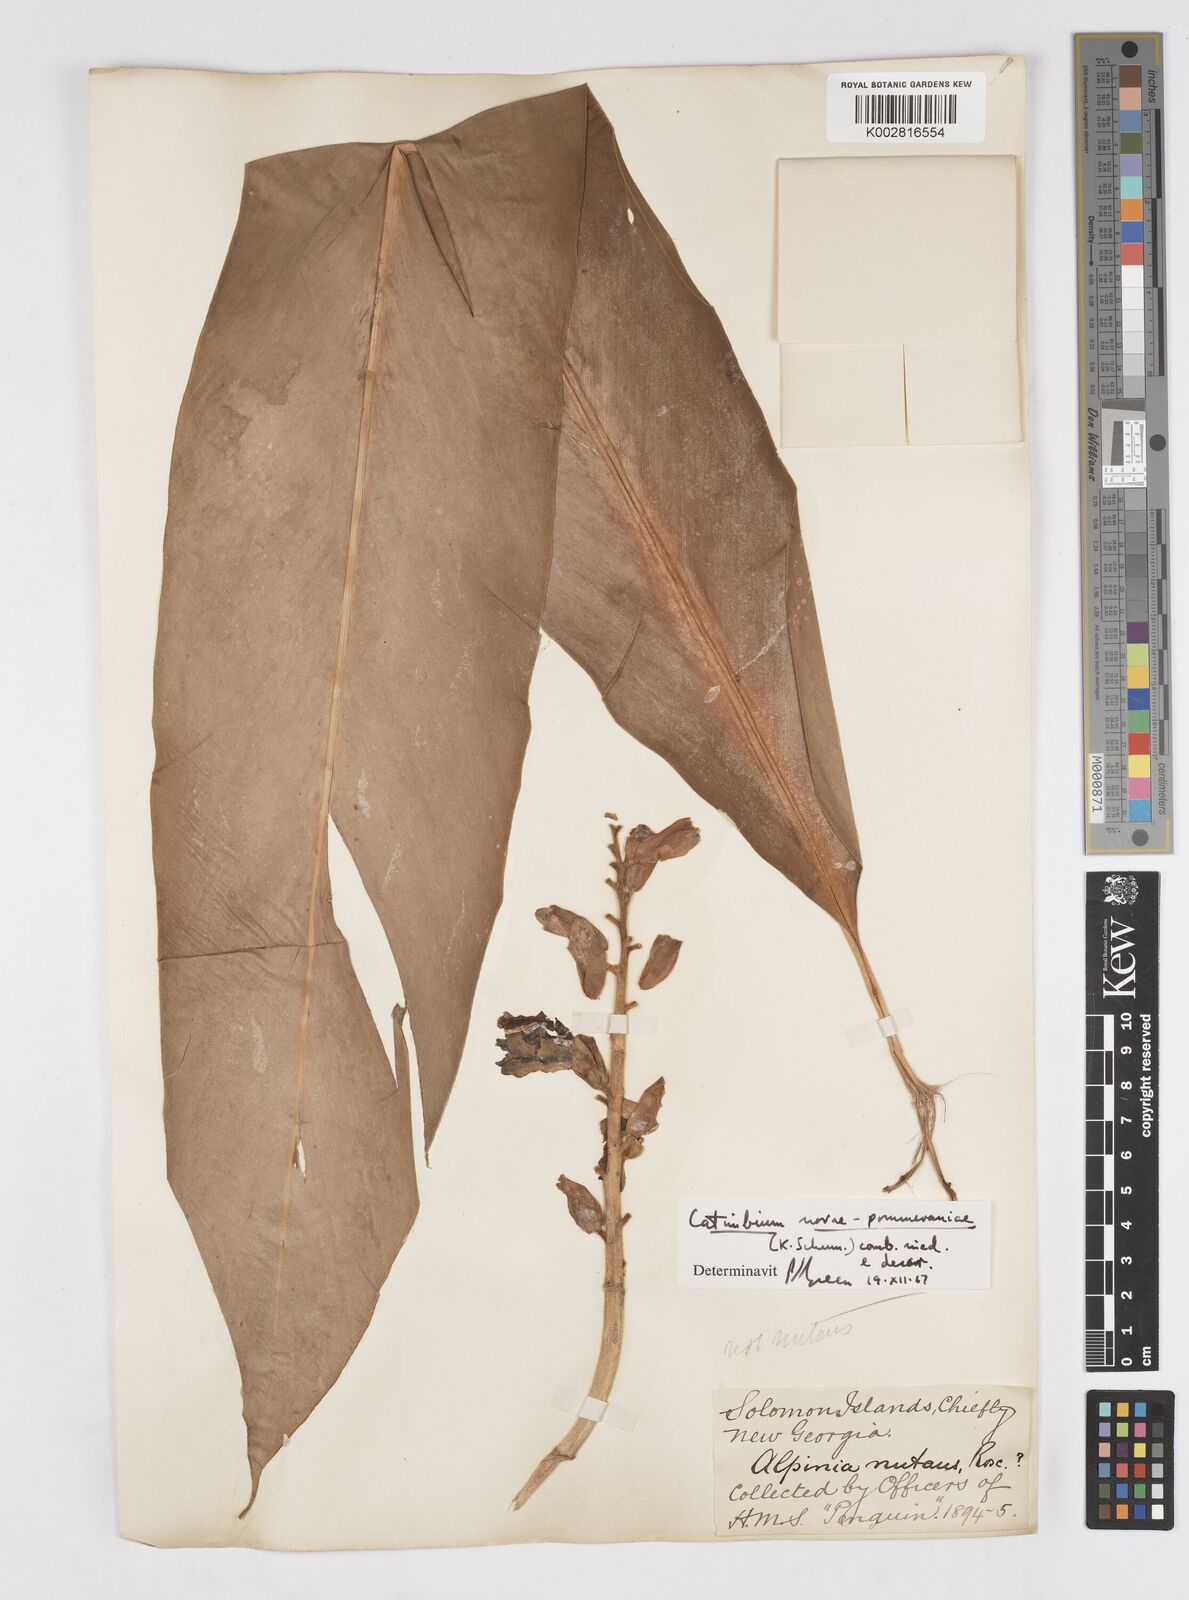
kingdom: Plantae
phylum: Tracheophyta
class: Liliopsida
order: Zingiberales
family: Zingiberaceae
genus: Alpinia
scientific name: Alpinia novae-pommeraniae
